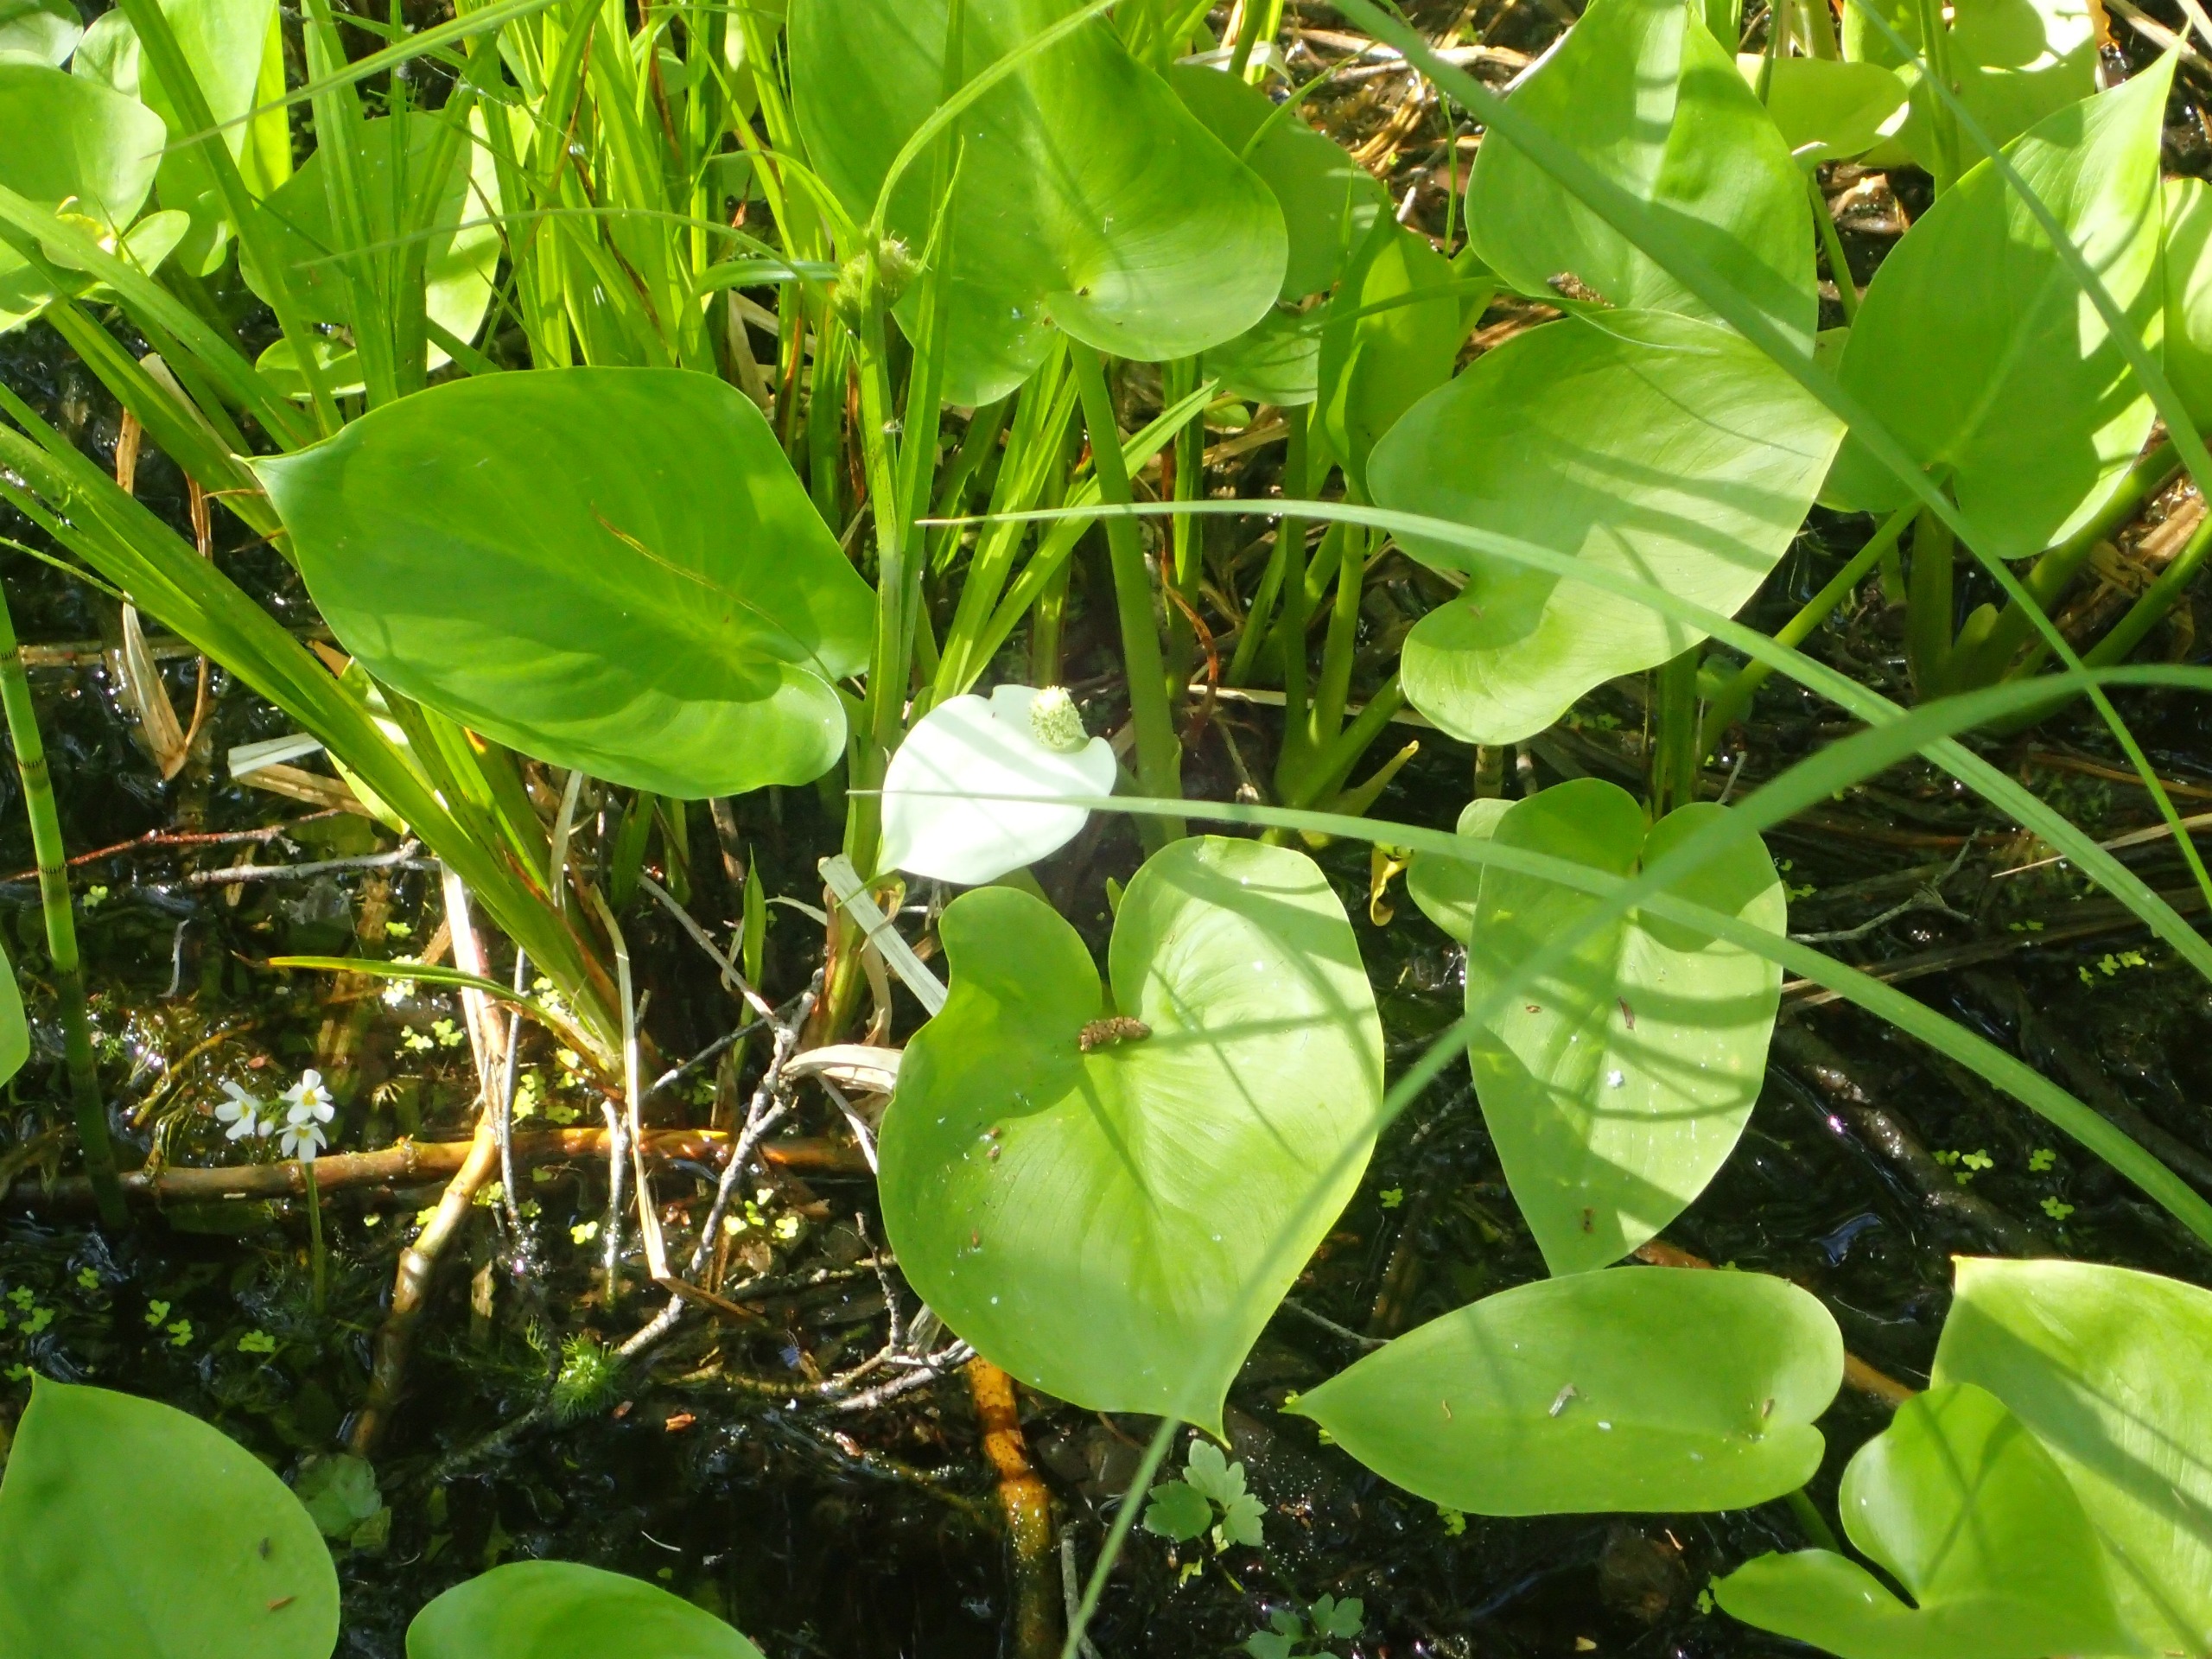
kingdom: Plantae
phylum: Tracheophyta
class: Liliopsida
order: Alismatales
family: Araceae
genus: Calla
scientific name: Calla palustris
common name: Kærmysse
